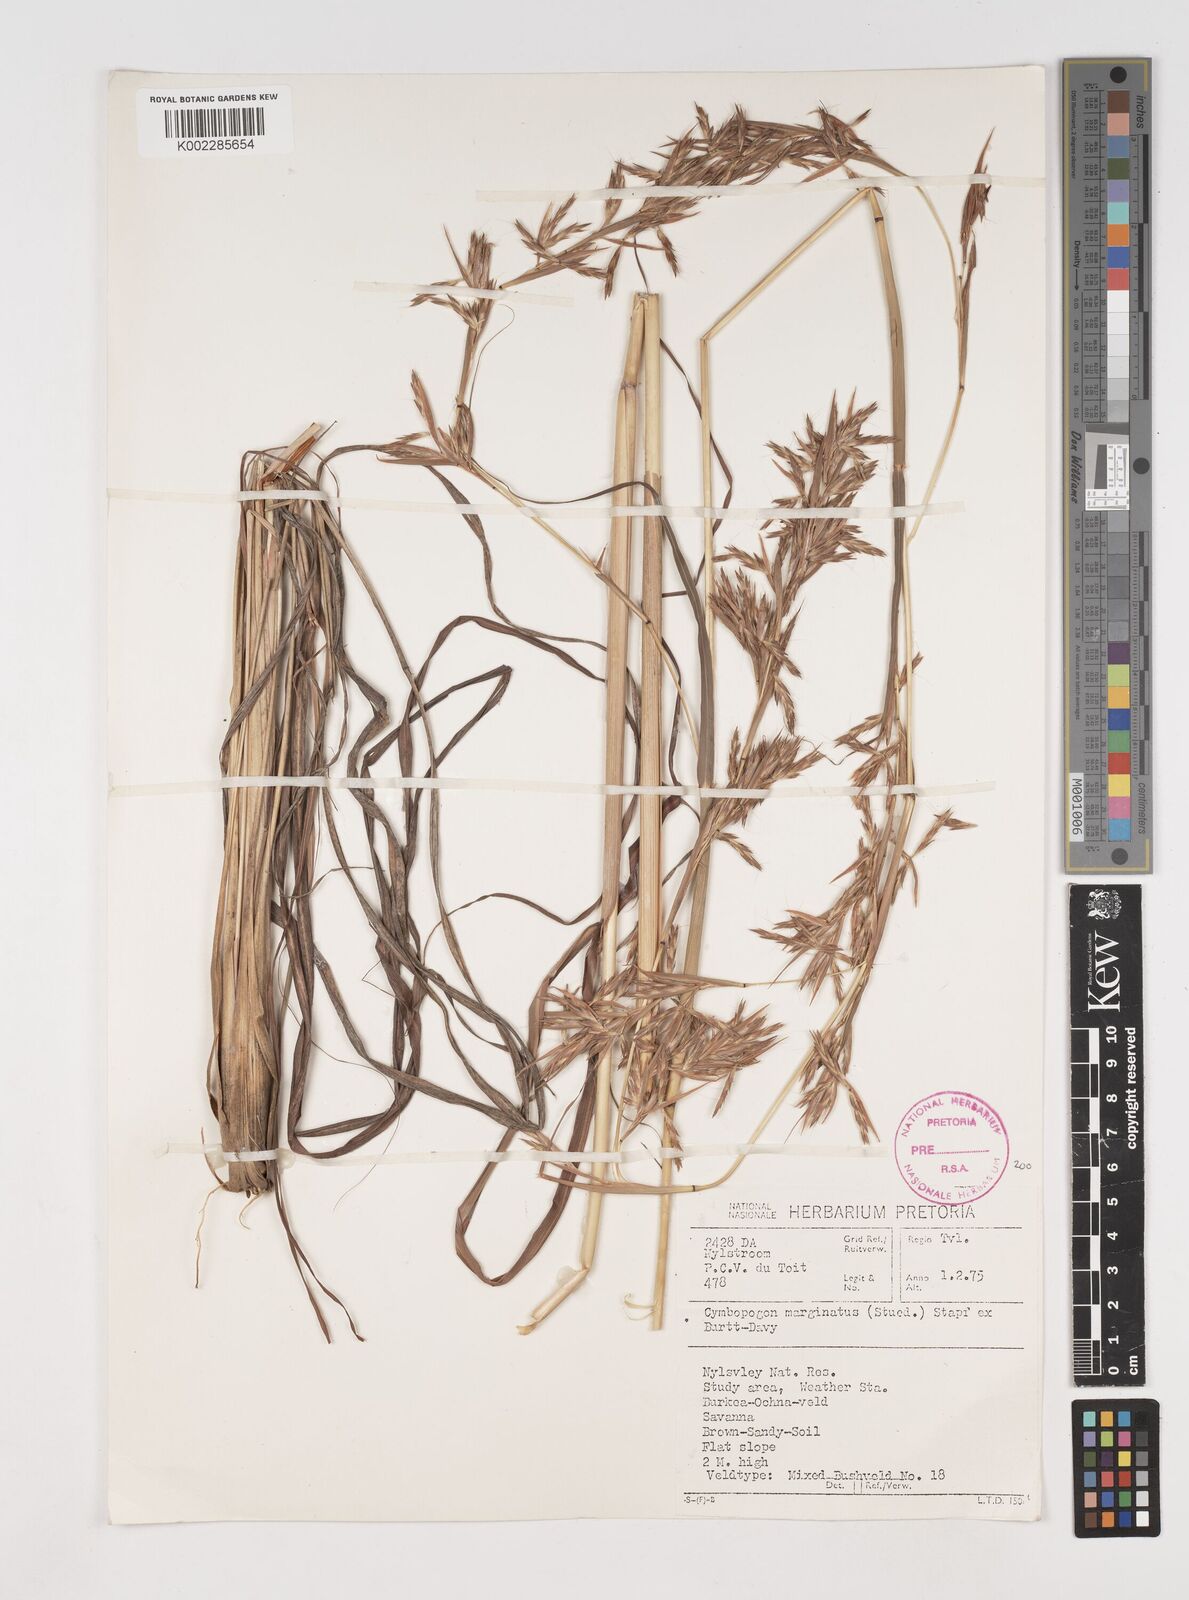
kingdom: Plantae
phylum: Tracheophyta
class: Liliopsida
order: Poales
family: Poaceae
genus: Cymbopogon
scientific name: Cymbopogon marginatus
